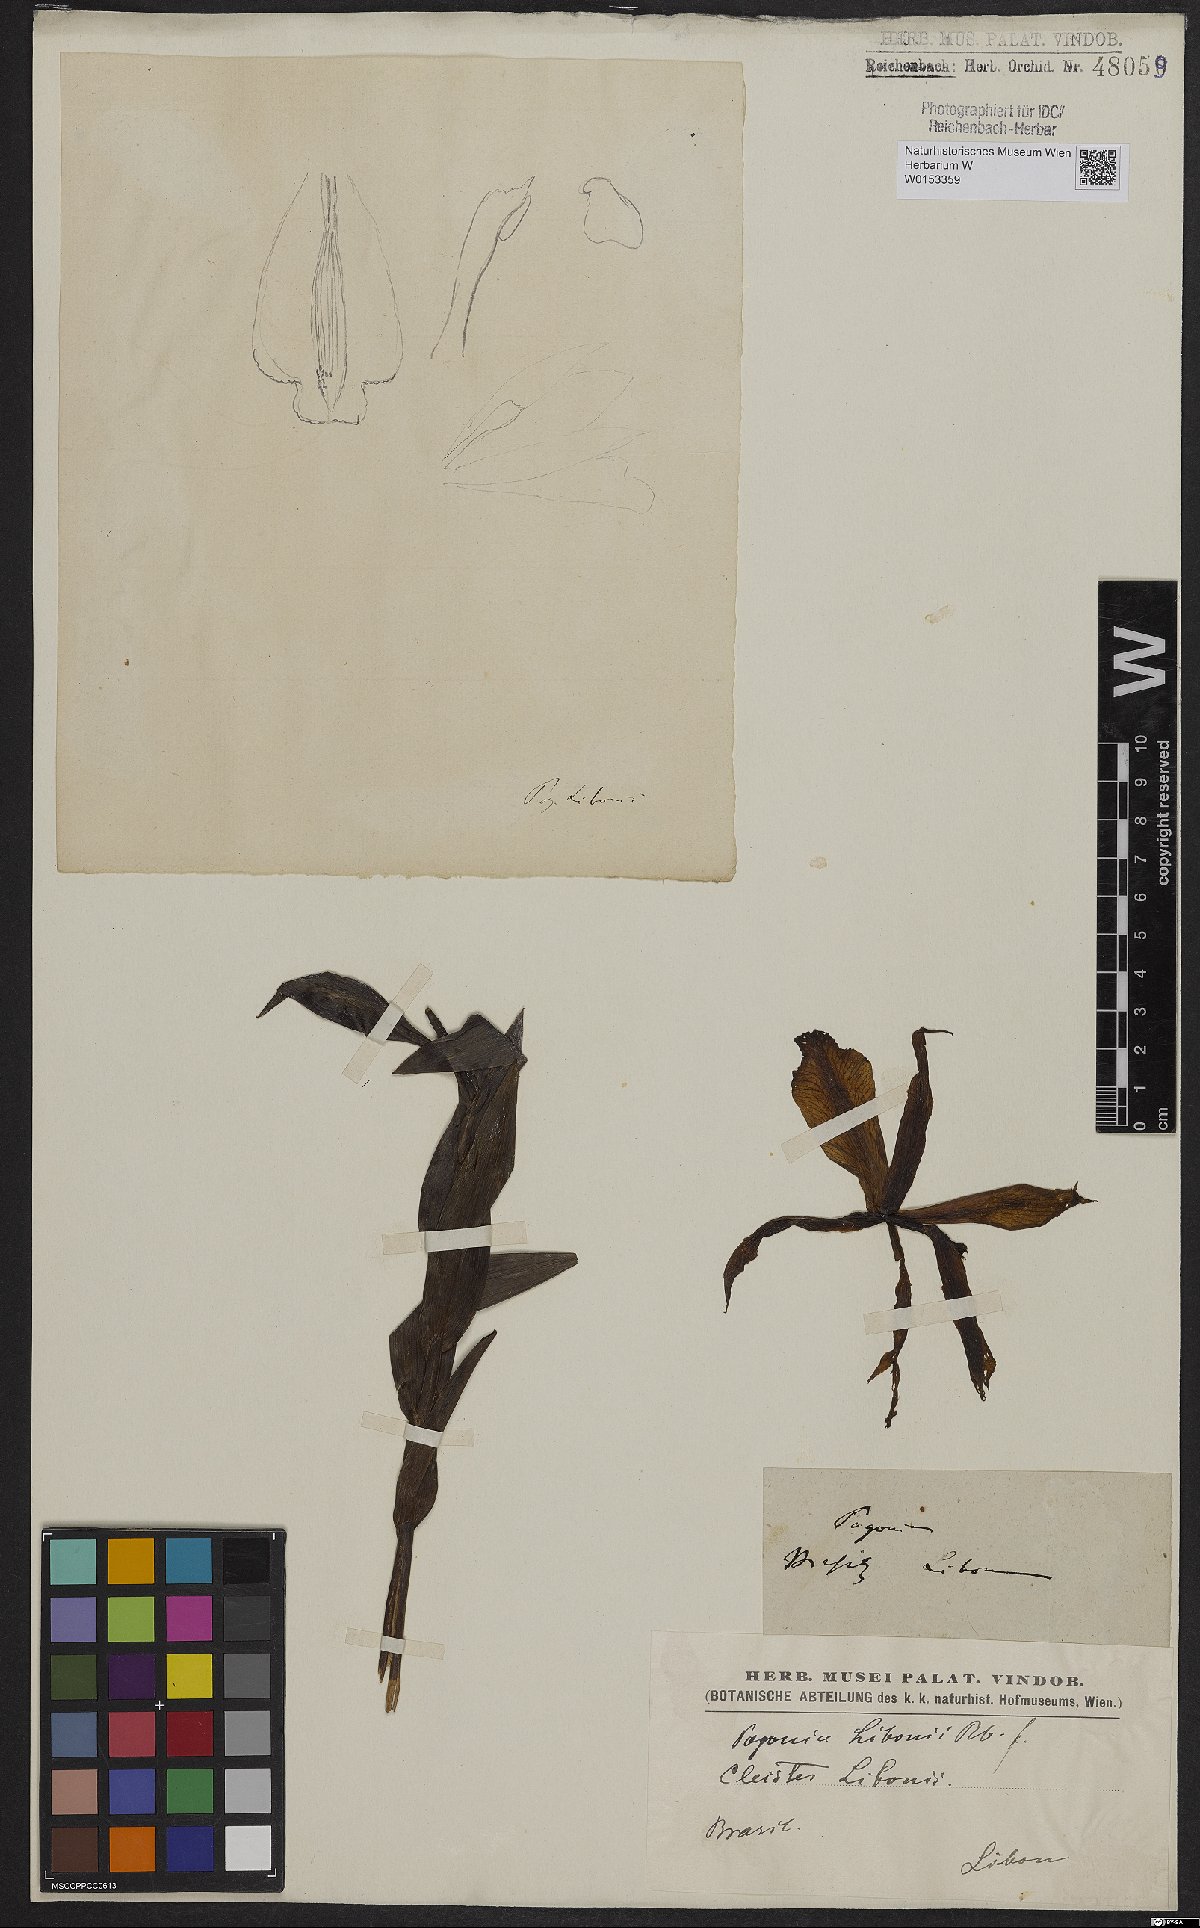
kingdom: Plantae
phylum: Tracheophyta
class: Liliopsida
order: Asparagales
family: Orchidaceae
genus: Cleistes
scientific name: Cleistes libonii
